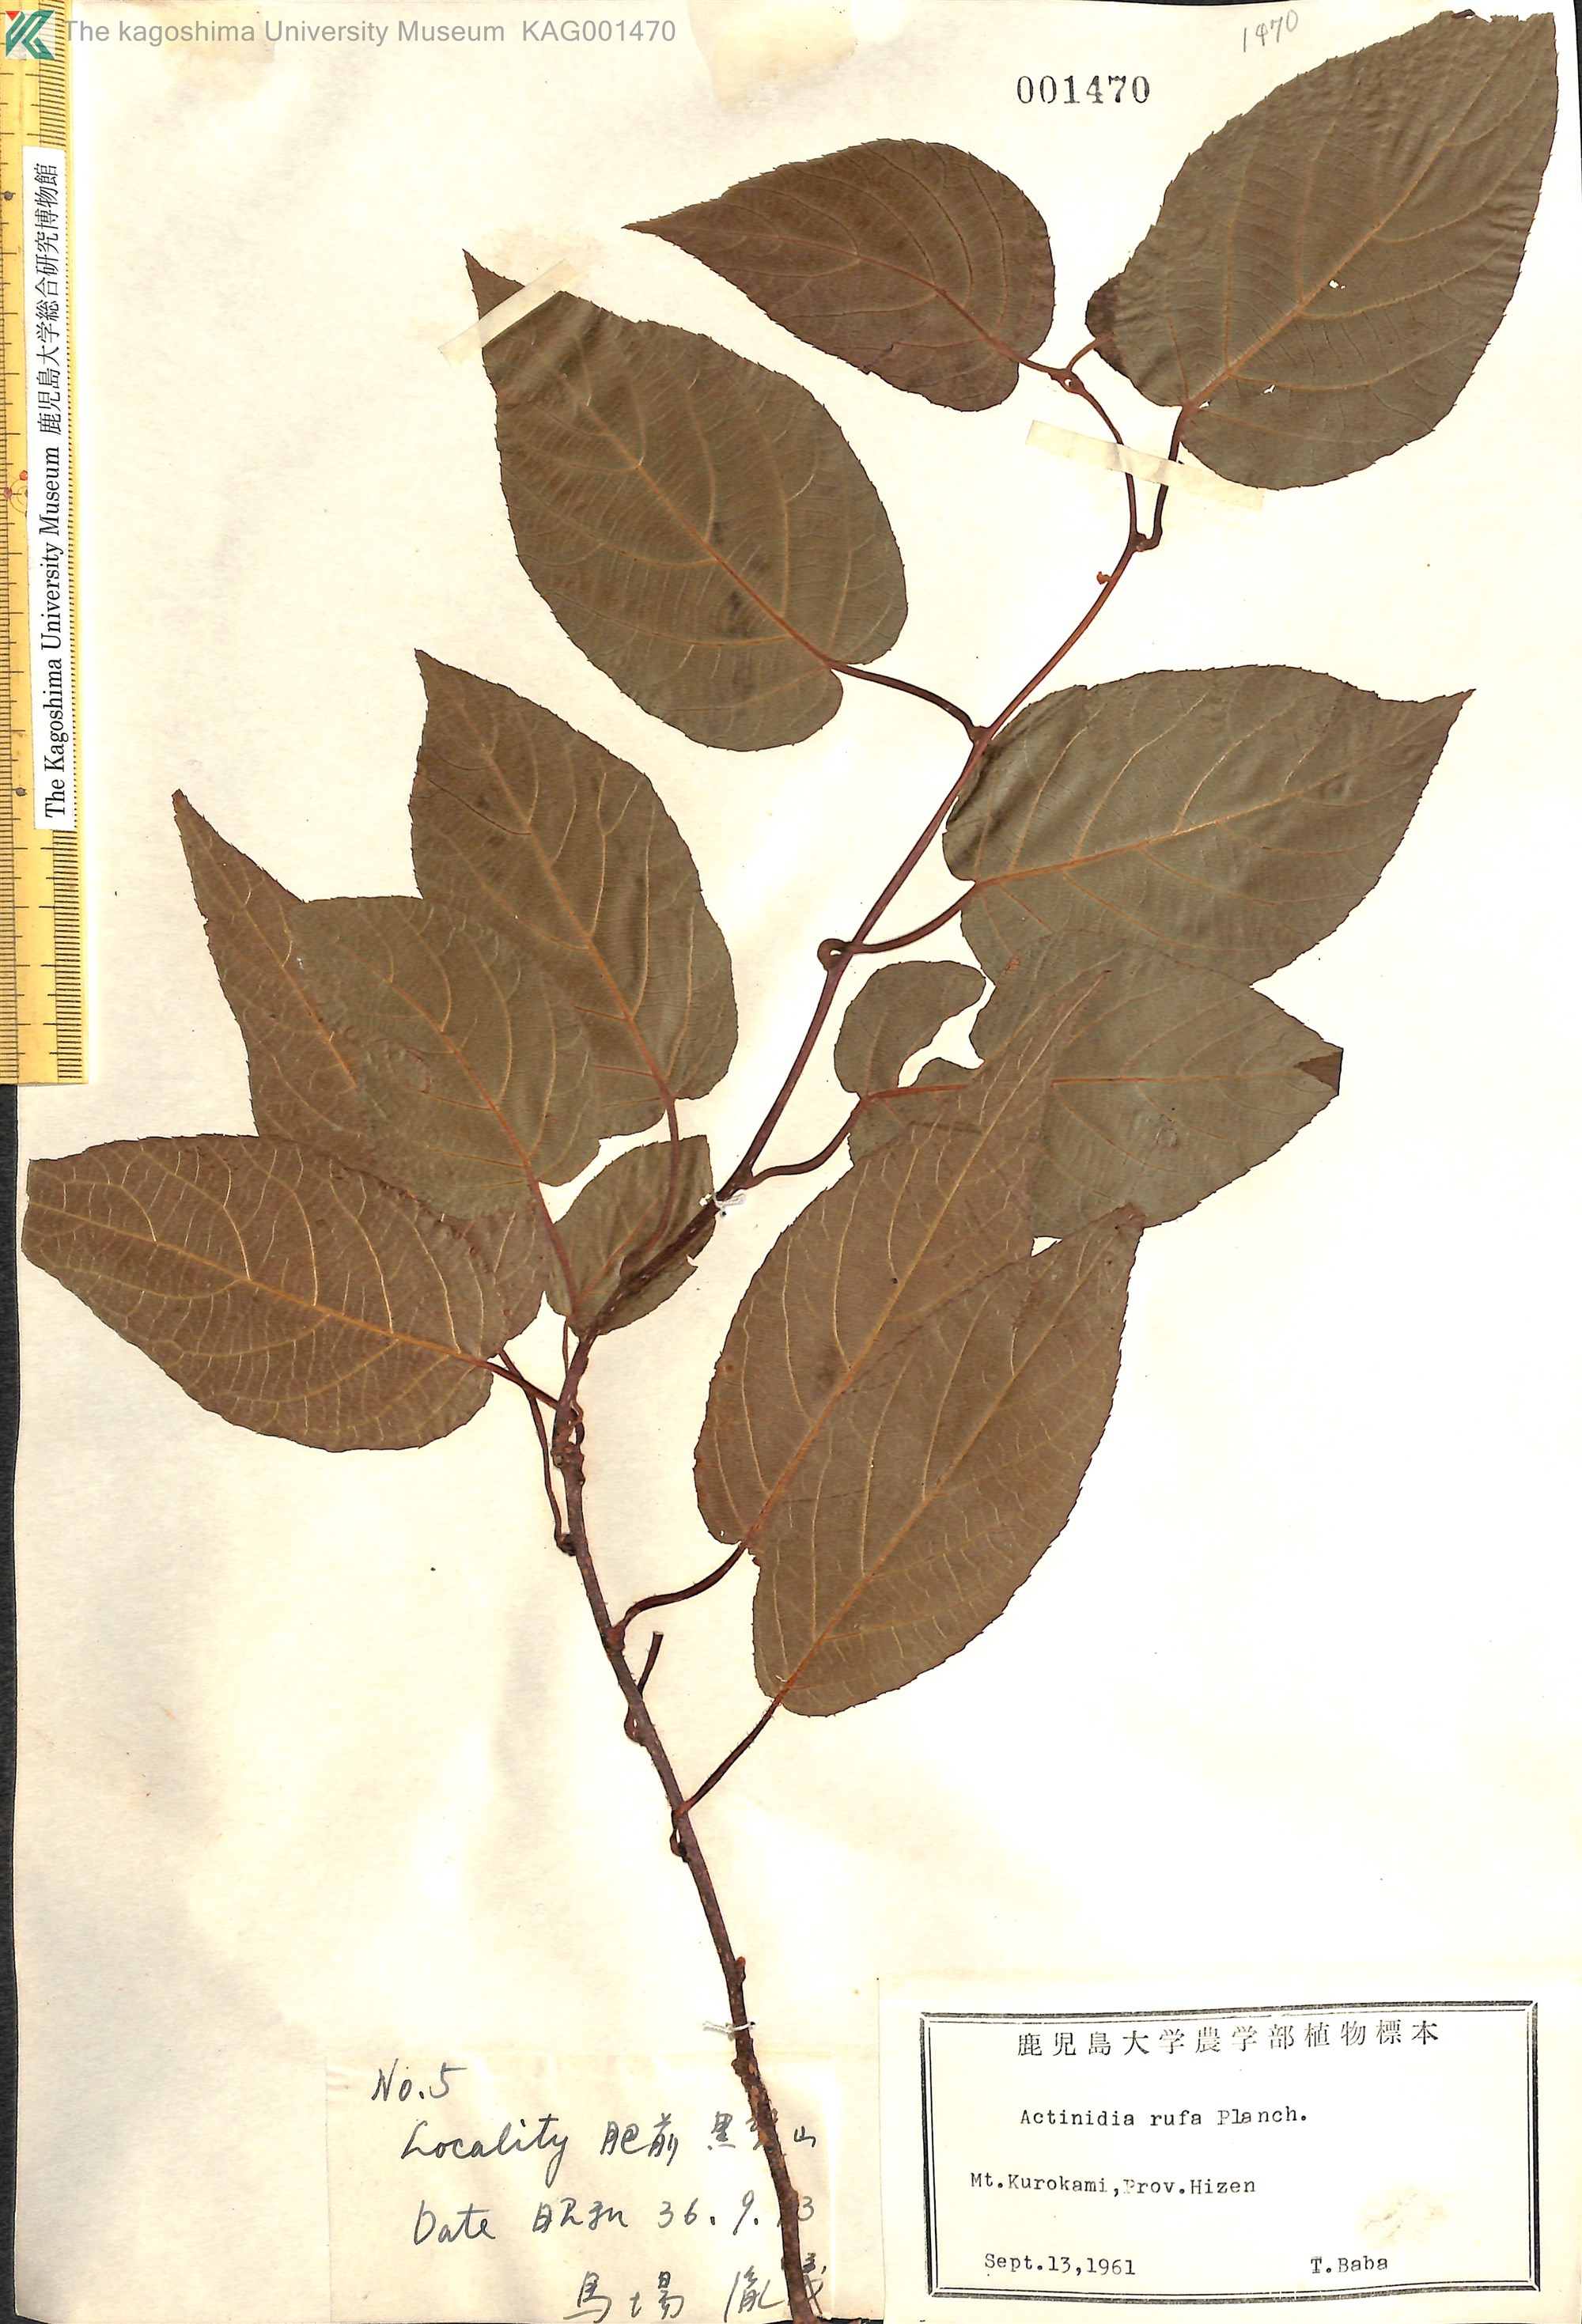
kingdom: Plantae
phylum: Tracheophyta
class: Magnoliopsida
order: Ericales
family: Actinidiaceae
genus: Actinidia
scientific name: Actinidia rufa
